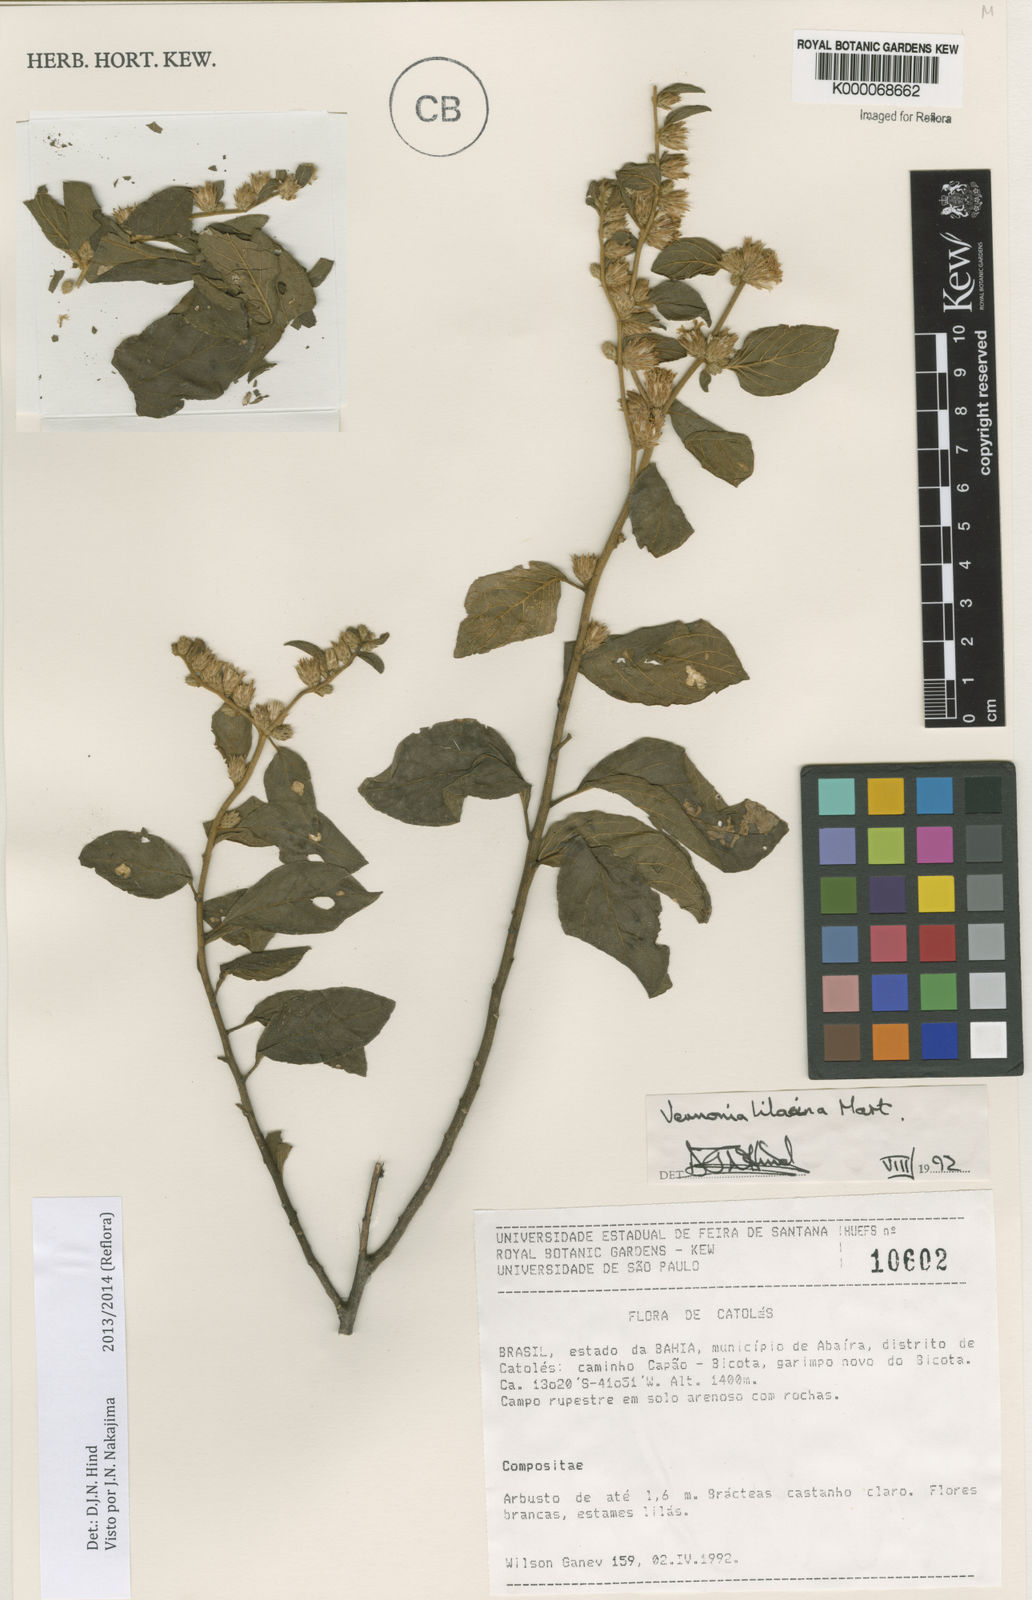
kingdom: Plantae
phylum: Tracheophyta
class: Magnoliopsida
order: Asterales
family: Asteraceae
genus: Lepidaploa
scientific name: Lepidaploa lilacina
